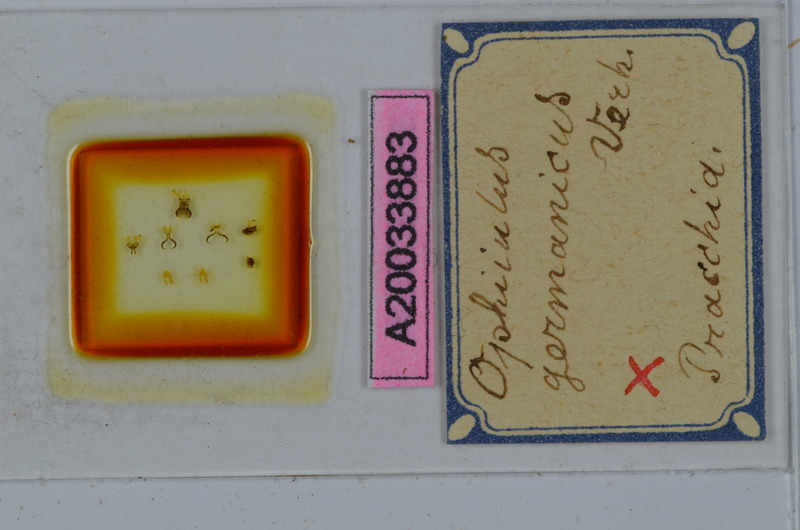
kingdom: Animalia
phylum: Arthropoda
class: Diplopoda
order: Julida
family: Julidae
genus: Ophyiulus
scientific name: Ophyiulus germanicus
